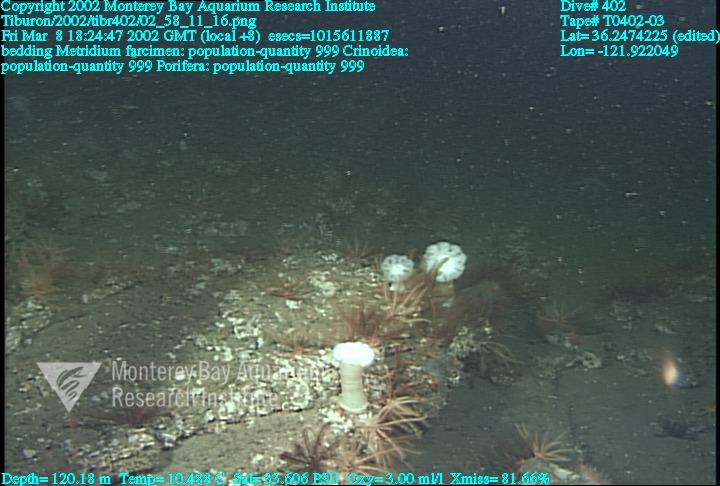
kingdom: Animalia
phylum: Porifera
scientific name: Porifera
